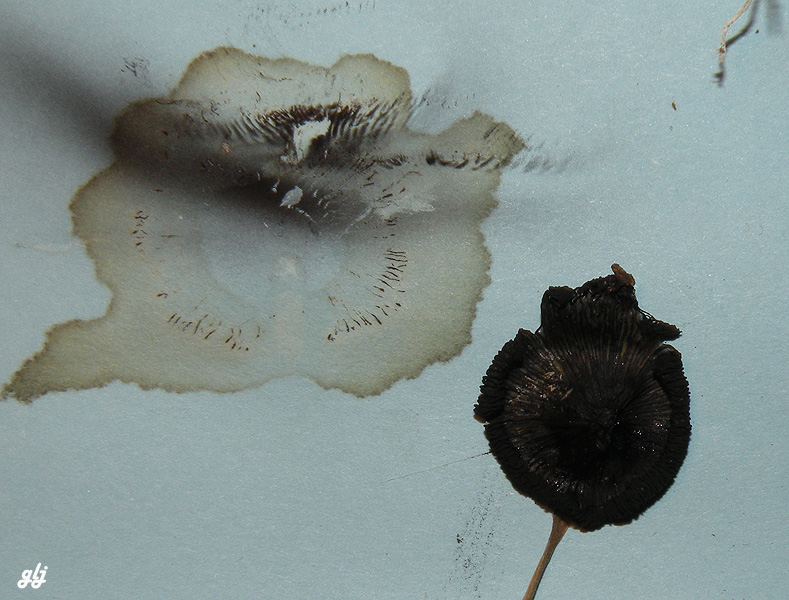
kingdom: Fungi
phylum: Basidiomycota
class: Agaricomycetes
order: Agaricales
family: Psathyrellaceae
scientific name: Psathyrellaceae
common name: mørkhatfamilien
